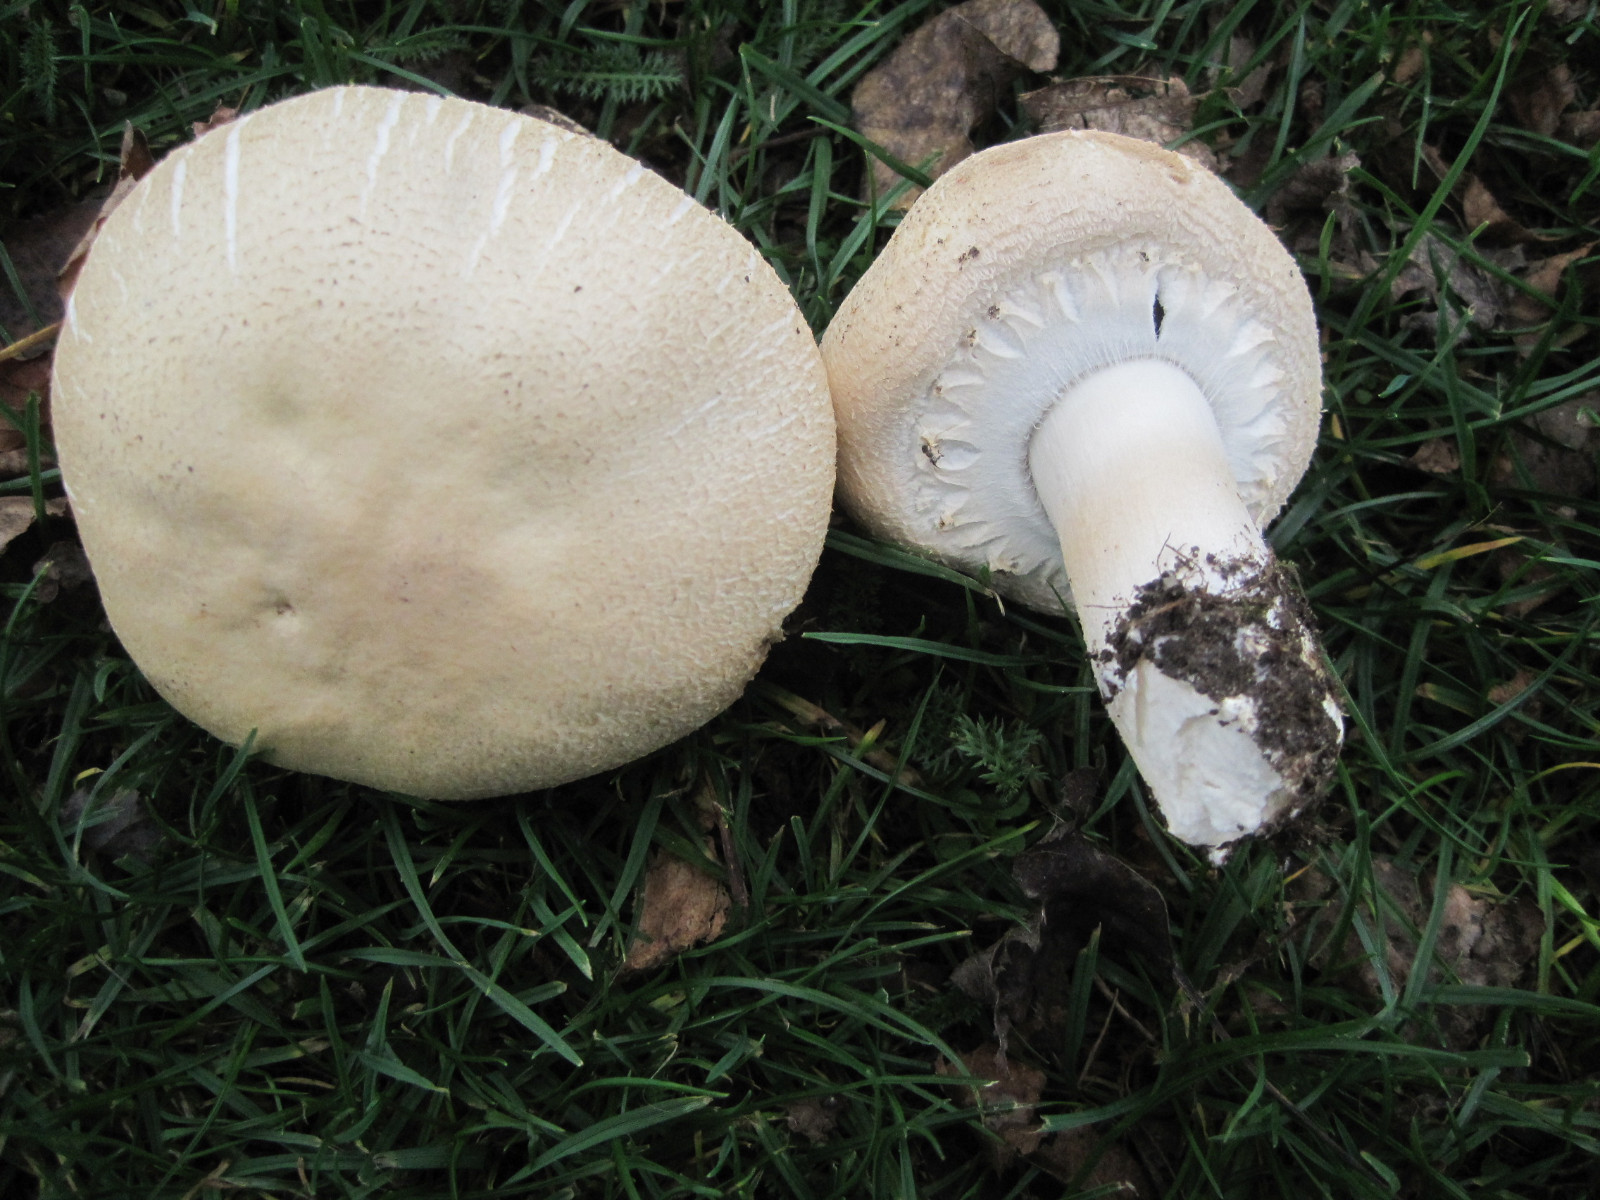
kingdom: Fungi
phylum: Basidiomycota
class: Agaricomycetes
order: Agaricales
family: Agaricaceae
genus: Agaricus
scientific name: Agaricus arvensis
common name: ager-champignon
